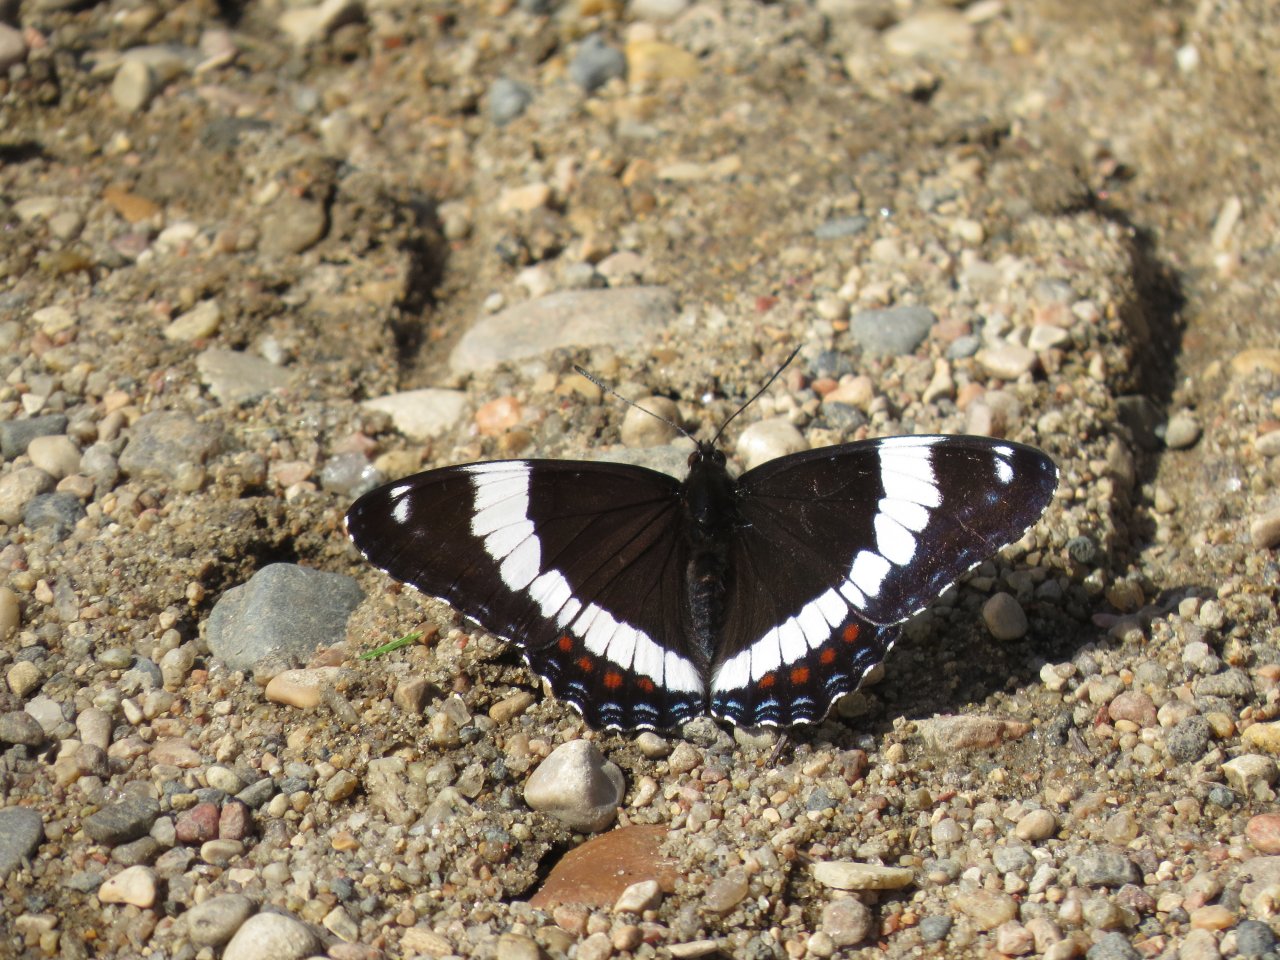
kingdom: Animalia
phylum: Arthropoda
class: Insecta
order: Lepidoptera
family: Nymphalidae
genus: Limenitis
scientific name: Limenitis arthemis
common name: Red-spotted Admiral
